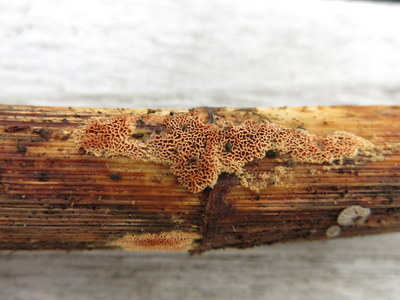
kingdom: Fungi
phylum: Basidiomycota
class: Agaricomycetes
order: Polyporales
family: Phanerochaetaceae
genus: Hapalopilus
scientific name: Hapalopilus eupatorii
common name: urte-okkerporesvamp
